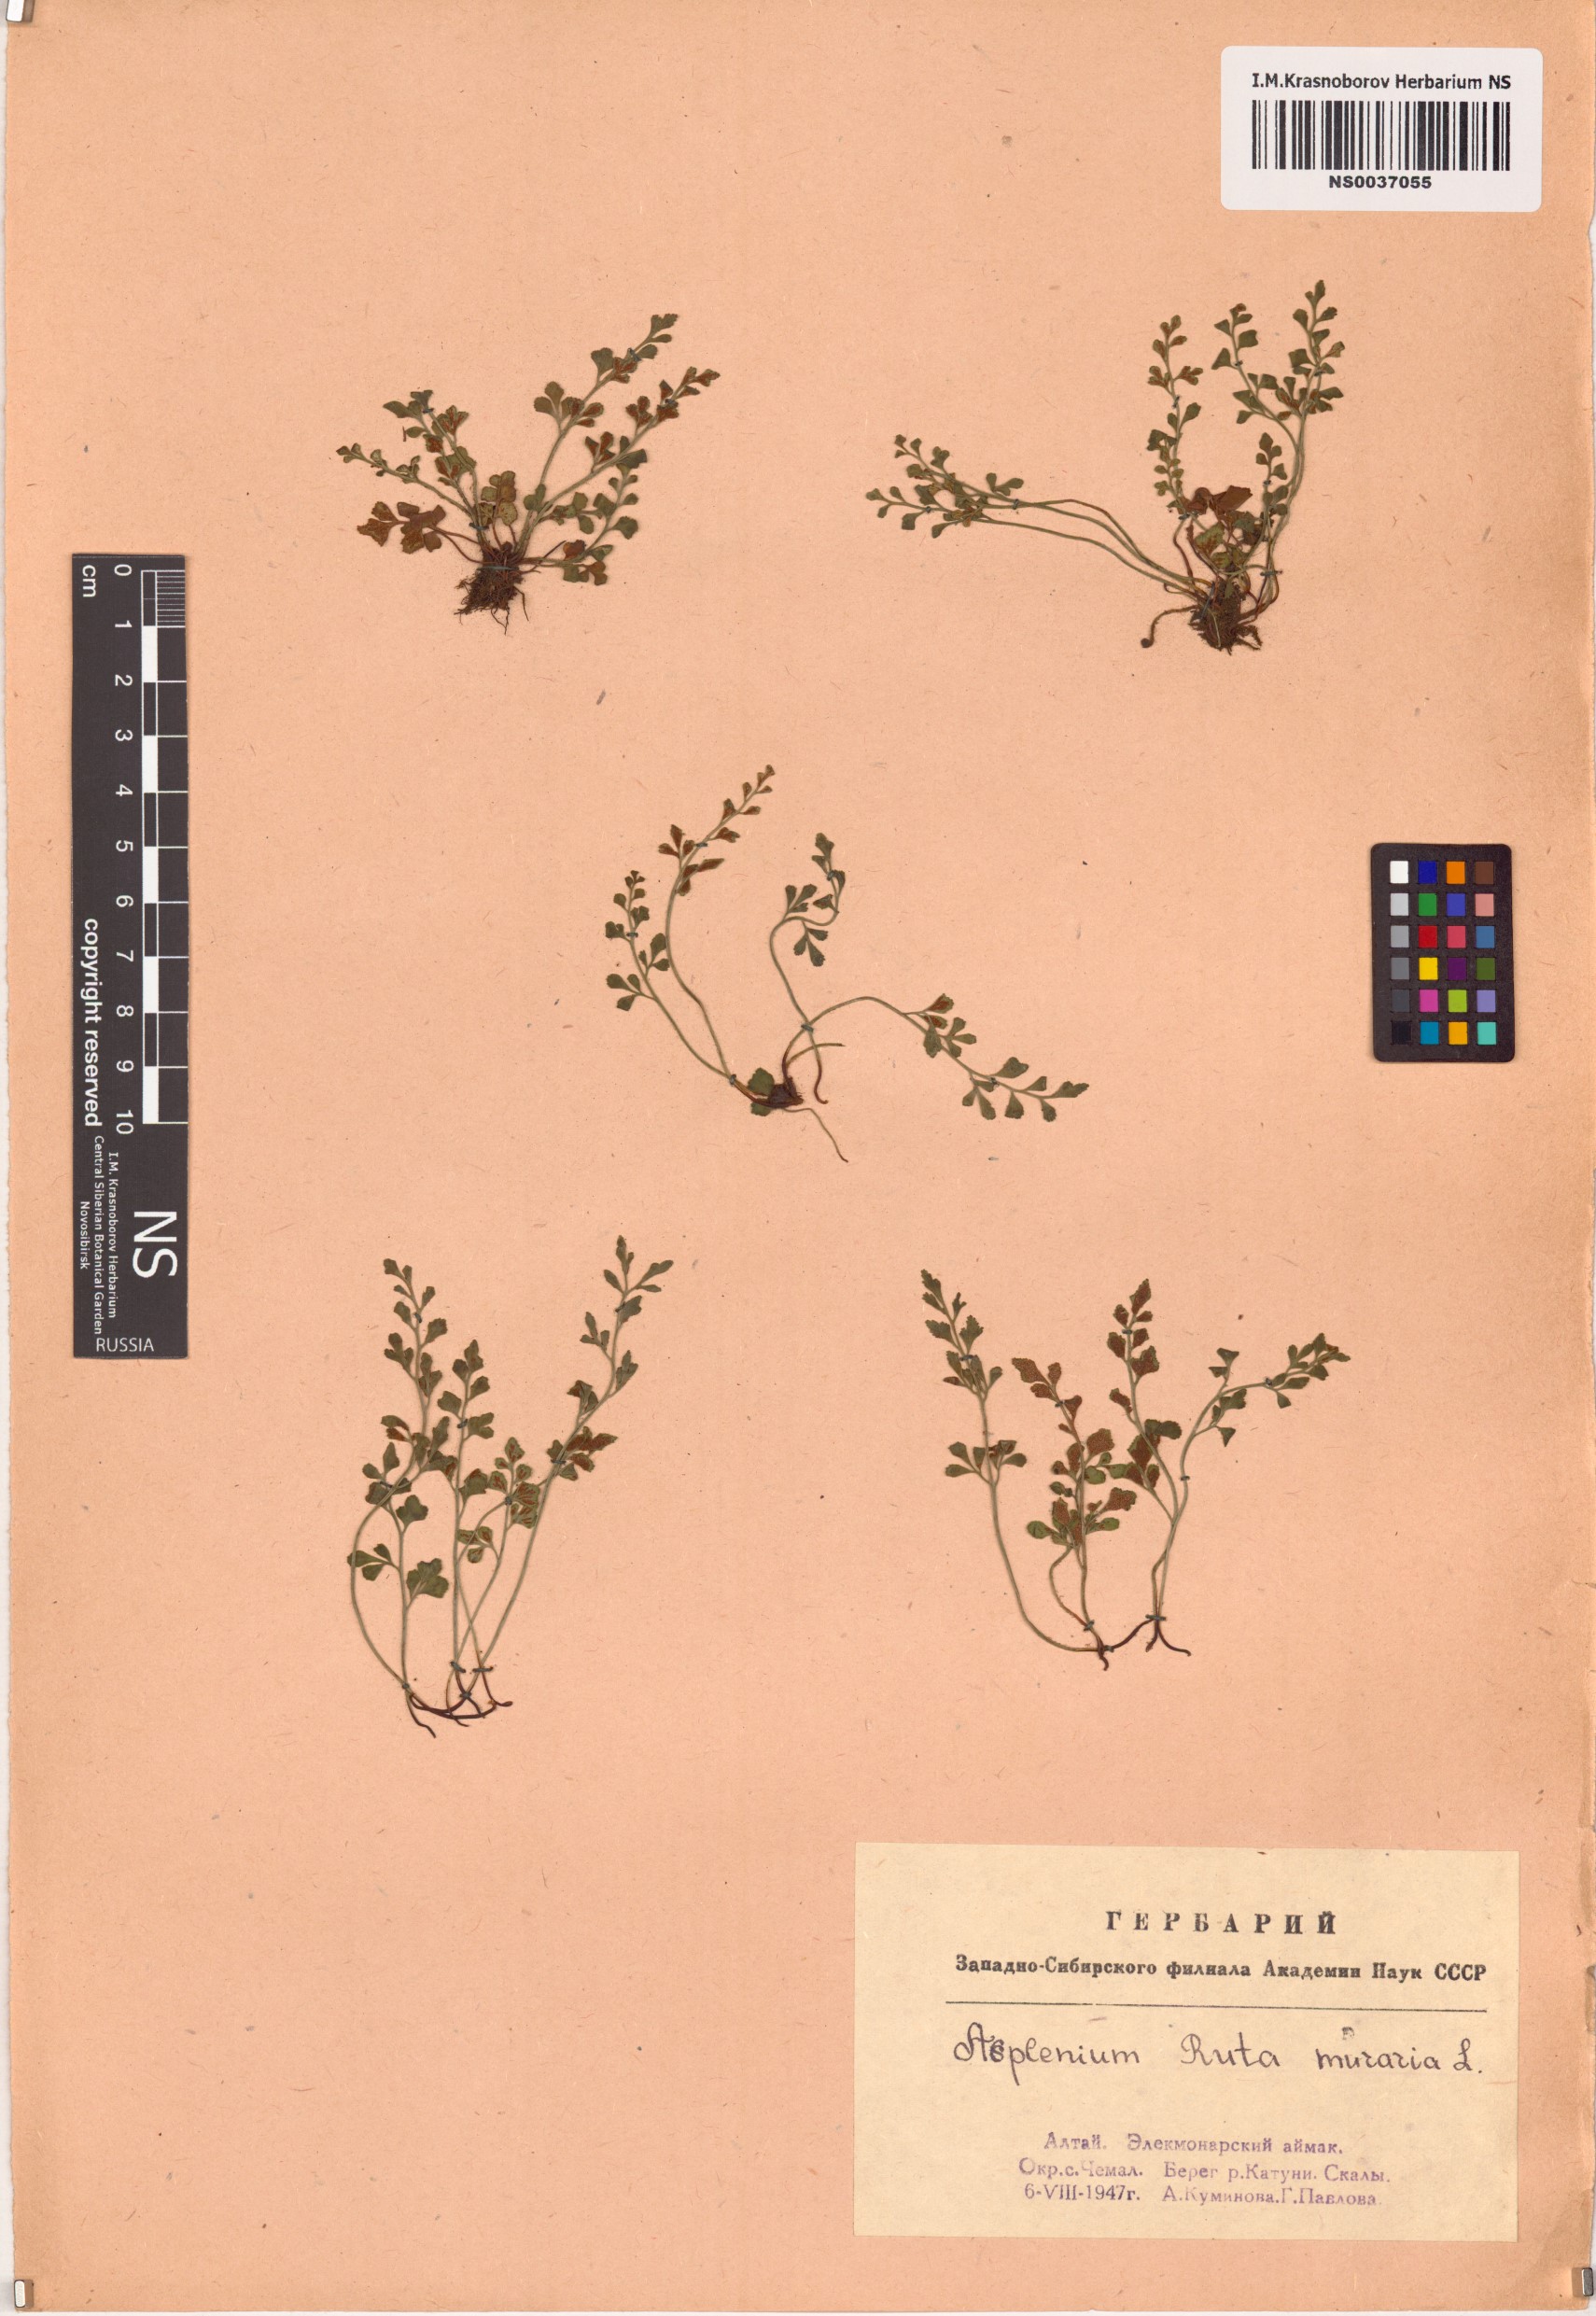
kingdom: Plantae
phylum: Tracheophyta
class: Polypodiopsida
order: Polypodiales
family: Aspleniaceae
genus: Asplenium
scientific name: Asplenium ruta-muraria
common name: Wall-rue
